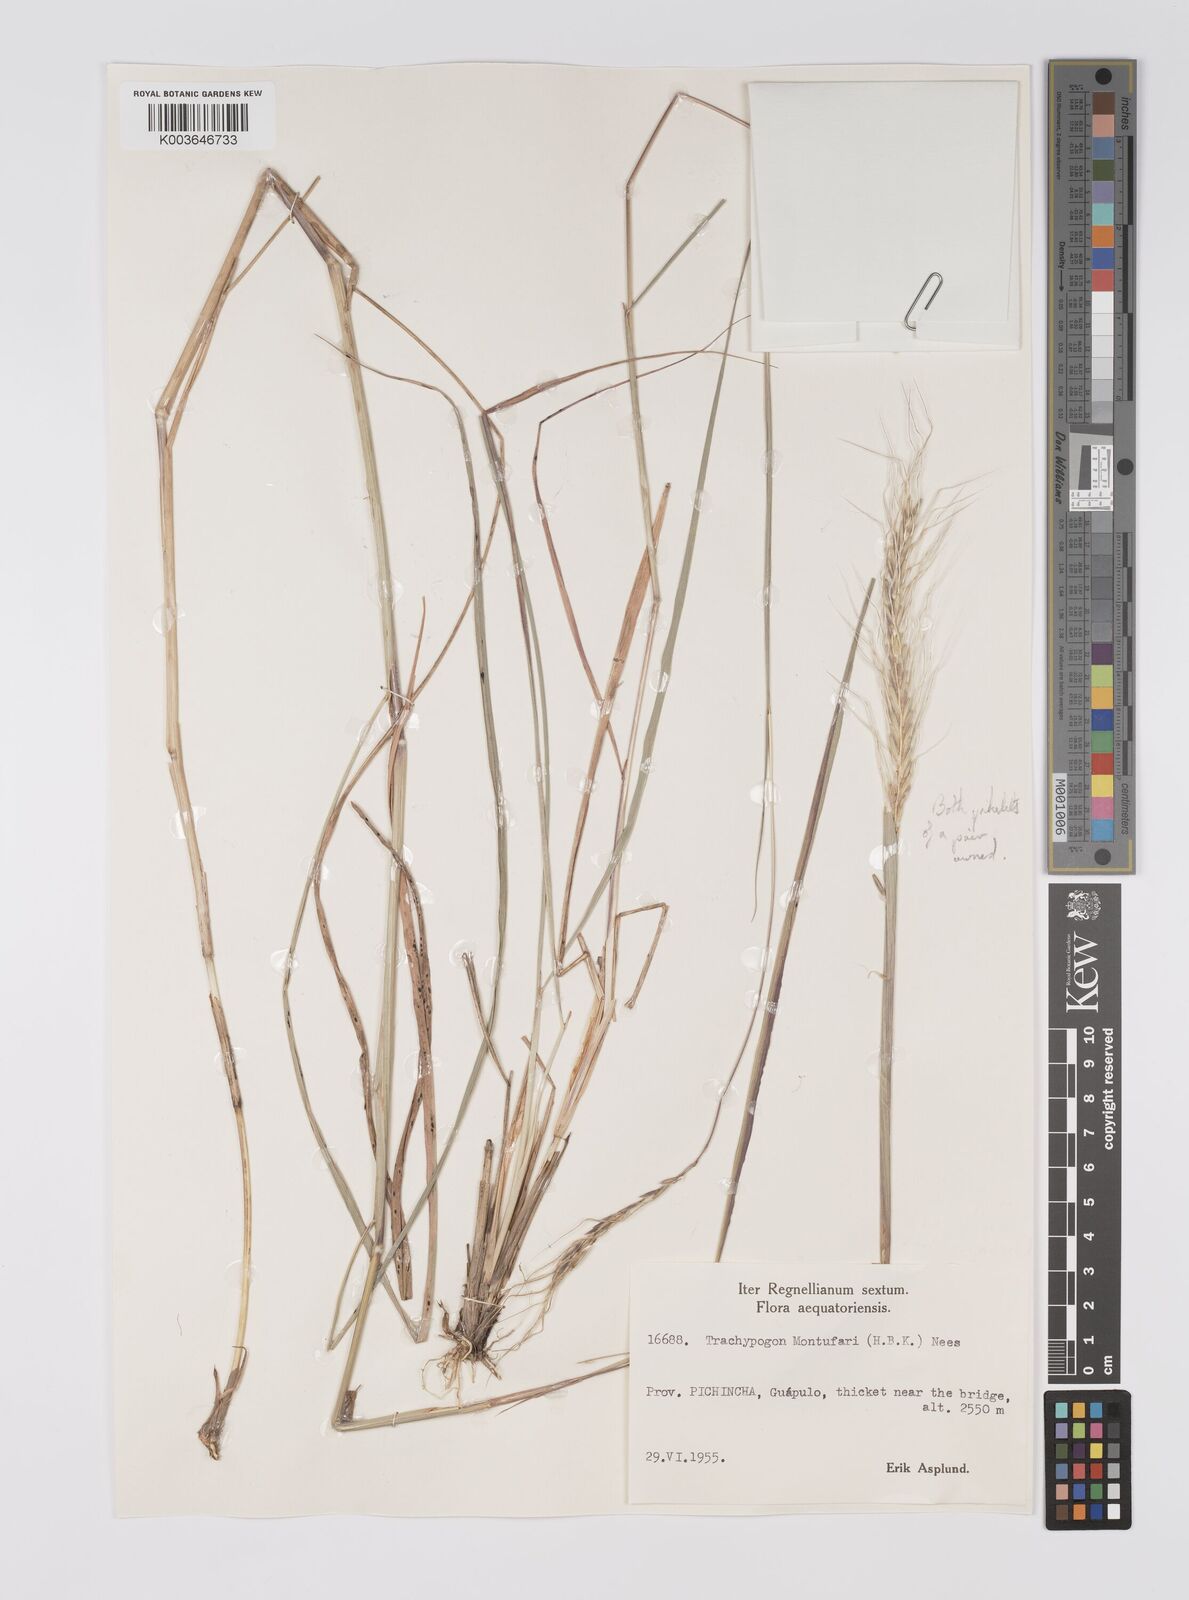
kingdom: Plantae
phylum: Tracheophyta
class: Liliopsida
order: Poales
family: Poaceae
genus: Trachypogon
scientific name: Trachypogon spicatus
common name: Crinkle-awn
